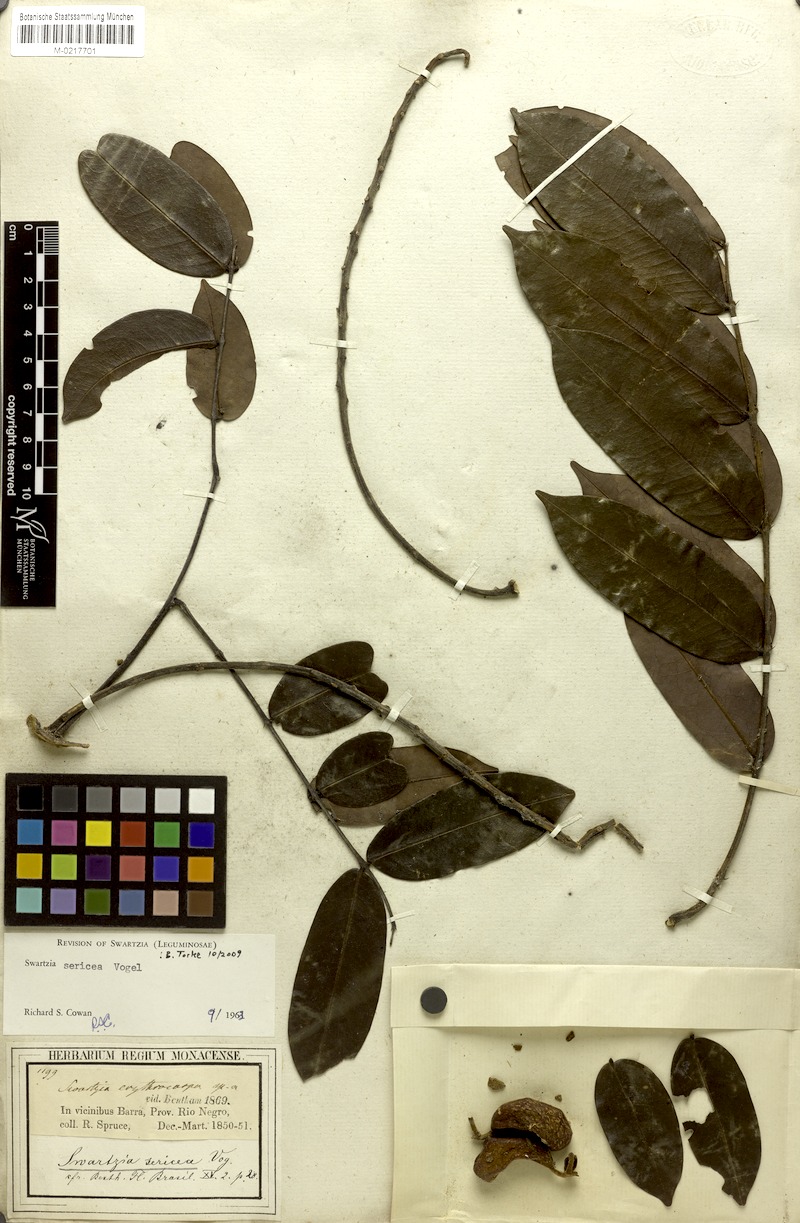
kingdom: Plantae
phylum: Tracheophyta
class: Magnoliopsida
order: Fabales
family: Fabaceae
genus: Swartzia
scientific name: Swartzia sericea
